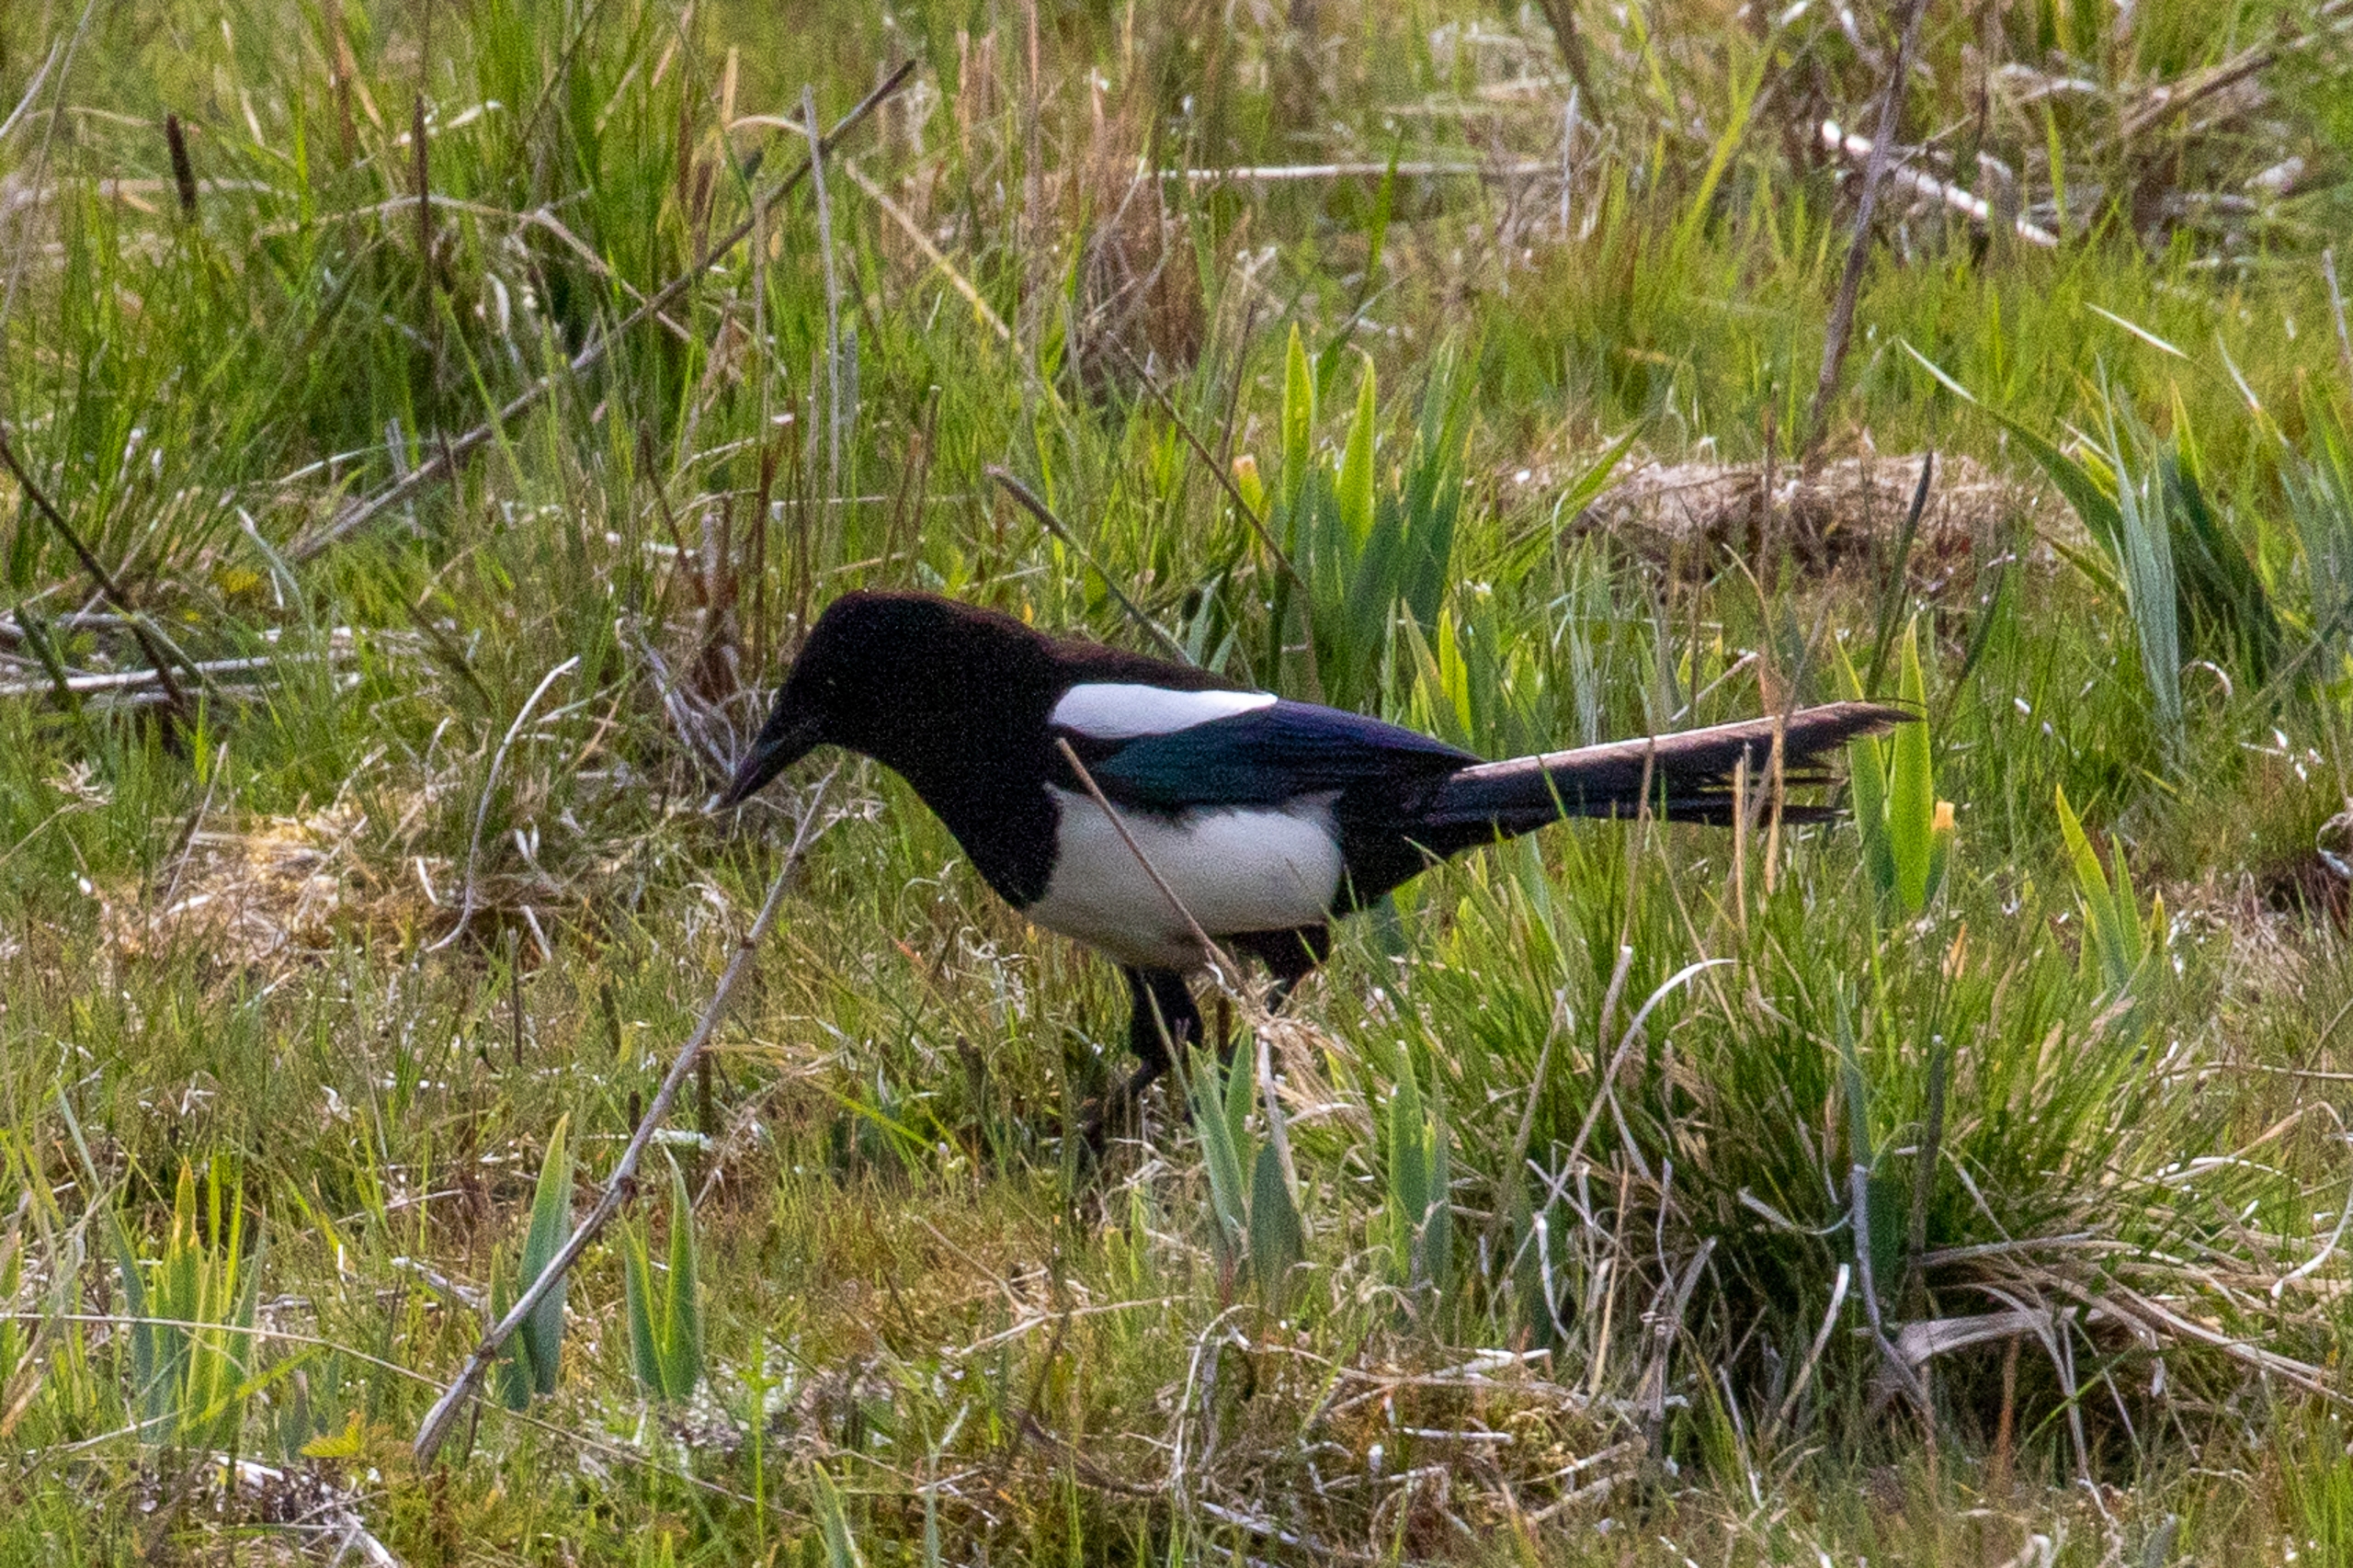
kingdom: Animalia
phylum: Chordata
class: Aves
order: Passeriformes
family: Corvidae
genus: Pica
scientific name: Pica pica
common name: Husskade
